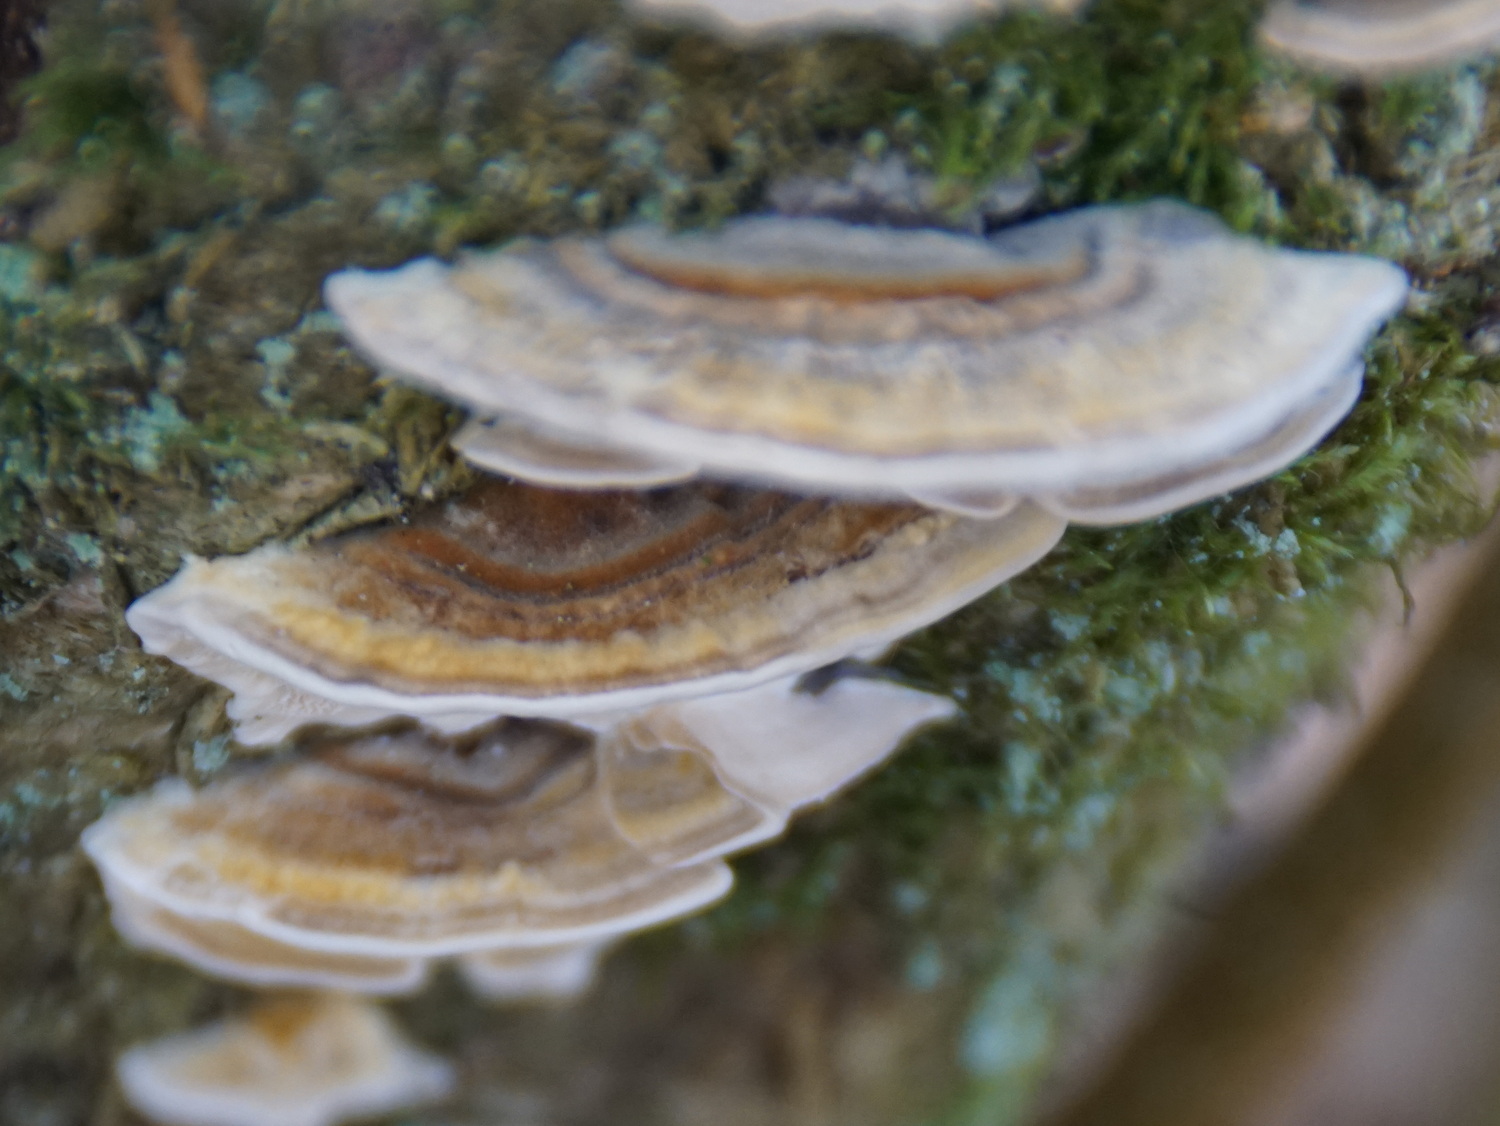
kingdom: Fungi
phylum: Basidiomycota
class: Agaricomycetes
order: Polyporales
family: Polyporaceae
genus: Trametes
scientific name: Trametes versicolor
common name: broget læderporesvamp
